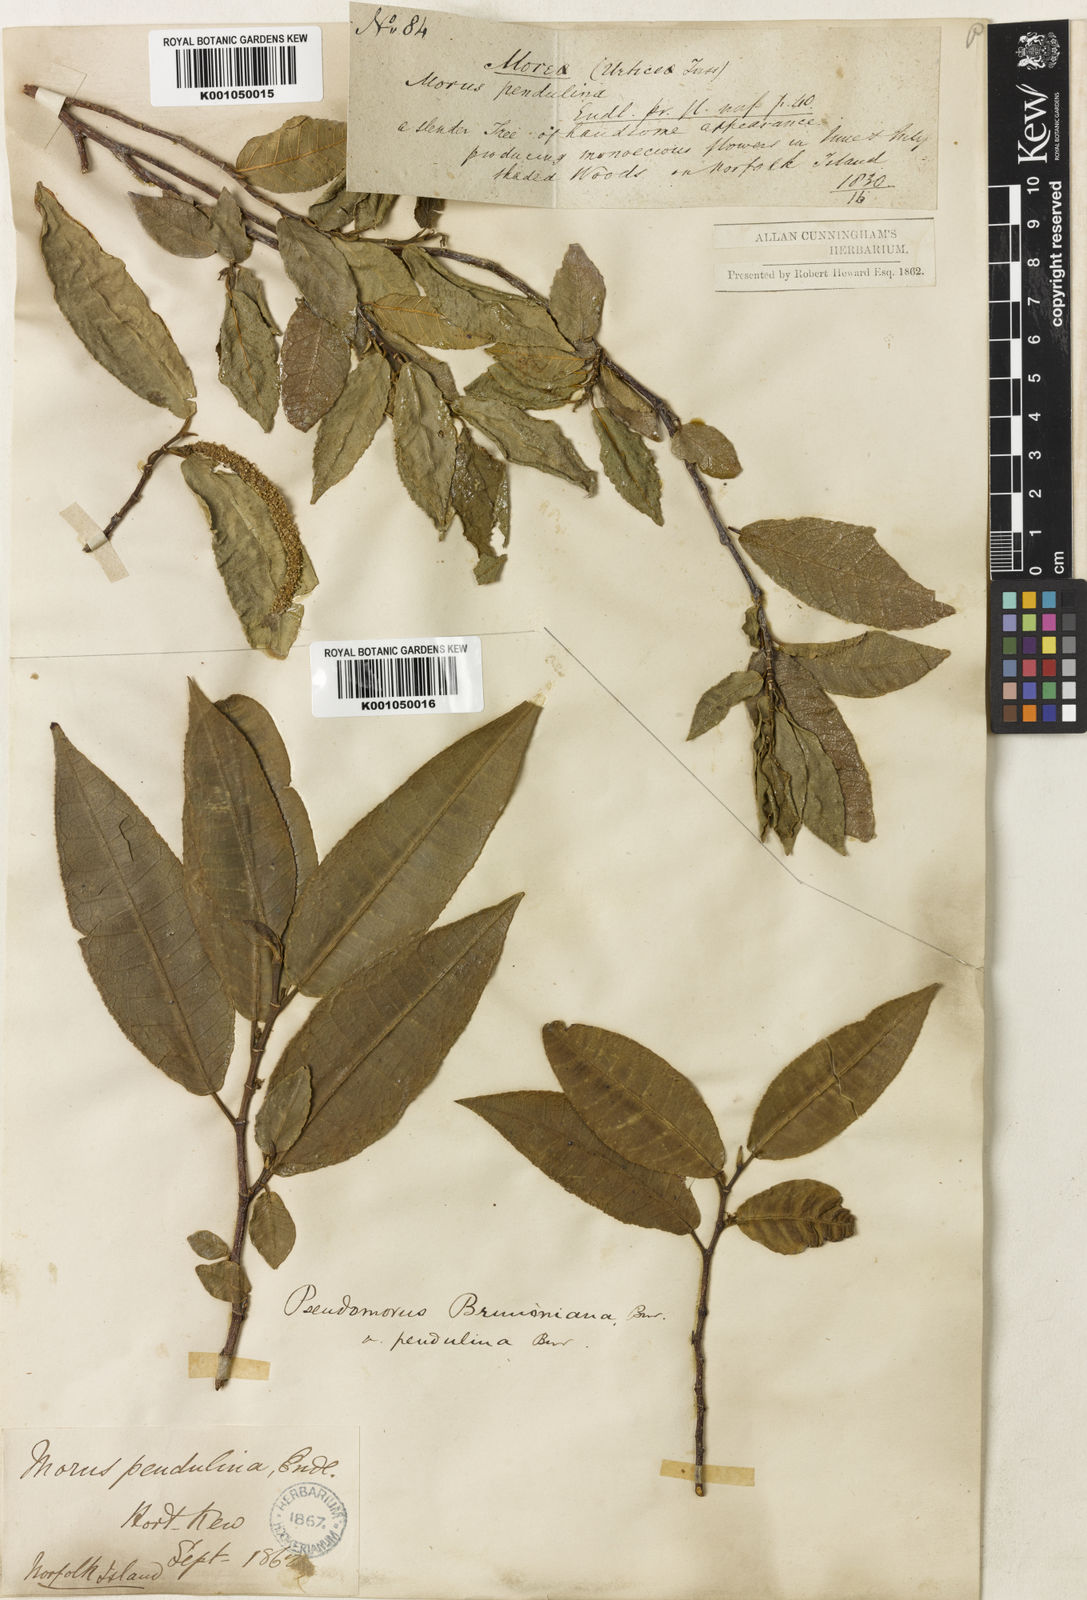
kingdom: Plantae
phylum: Tracheophyta
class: Magnoliopsida
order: Rosales
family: Moraceae
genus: Paratrophis
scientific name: Paratrophis pendulina
